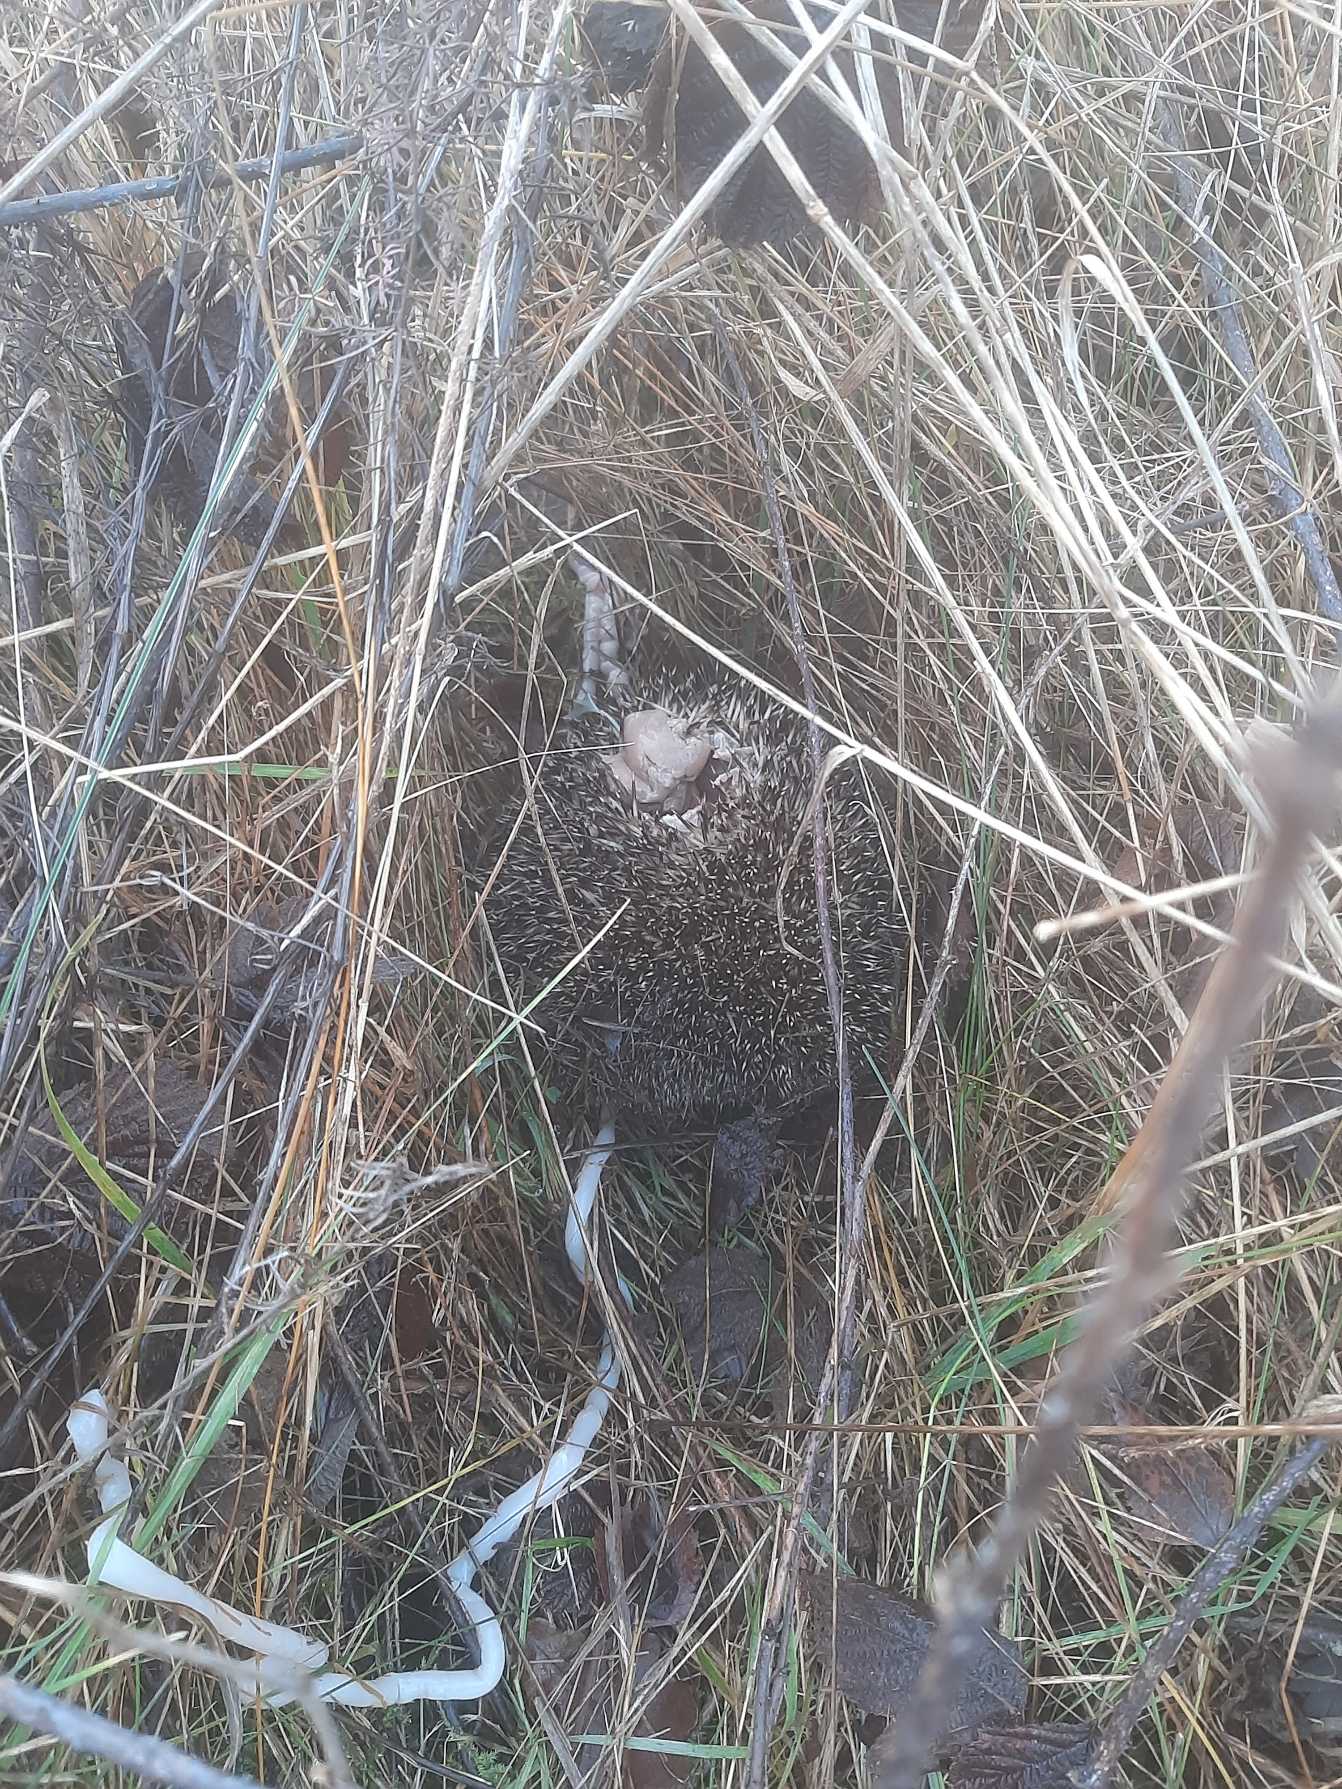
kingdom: Animalia
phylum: Chordata
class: Mammalia
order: Erinaceomorpha
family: Erinaceidae
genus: Erinaceus
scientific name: Erinaceus europaeus
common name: Pindsvin
